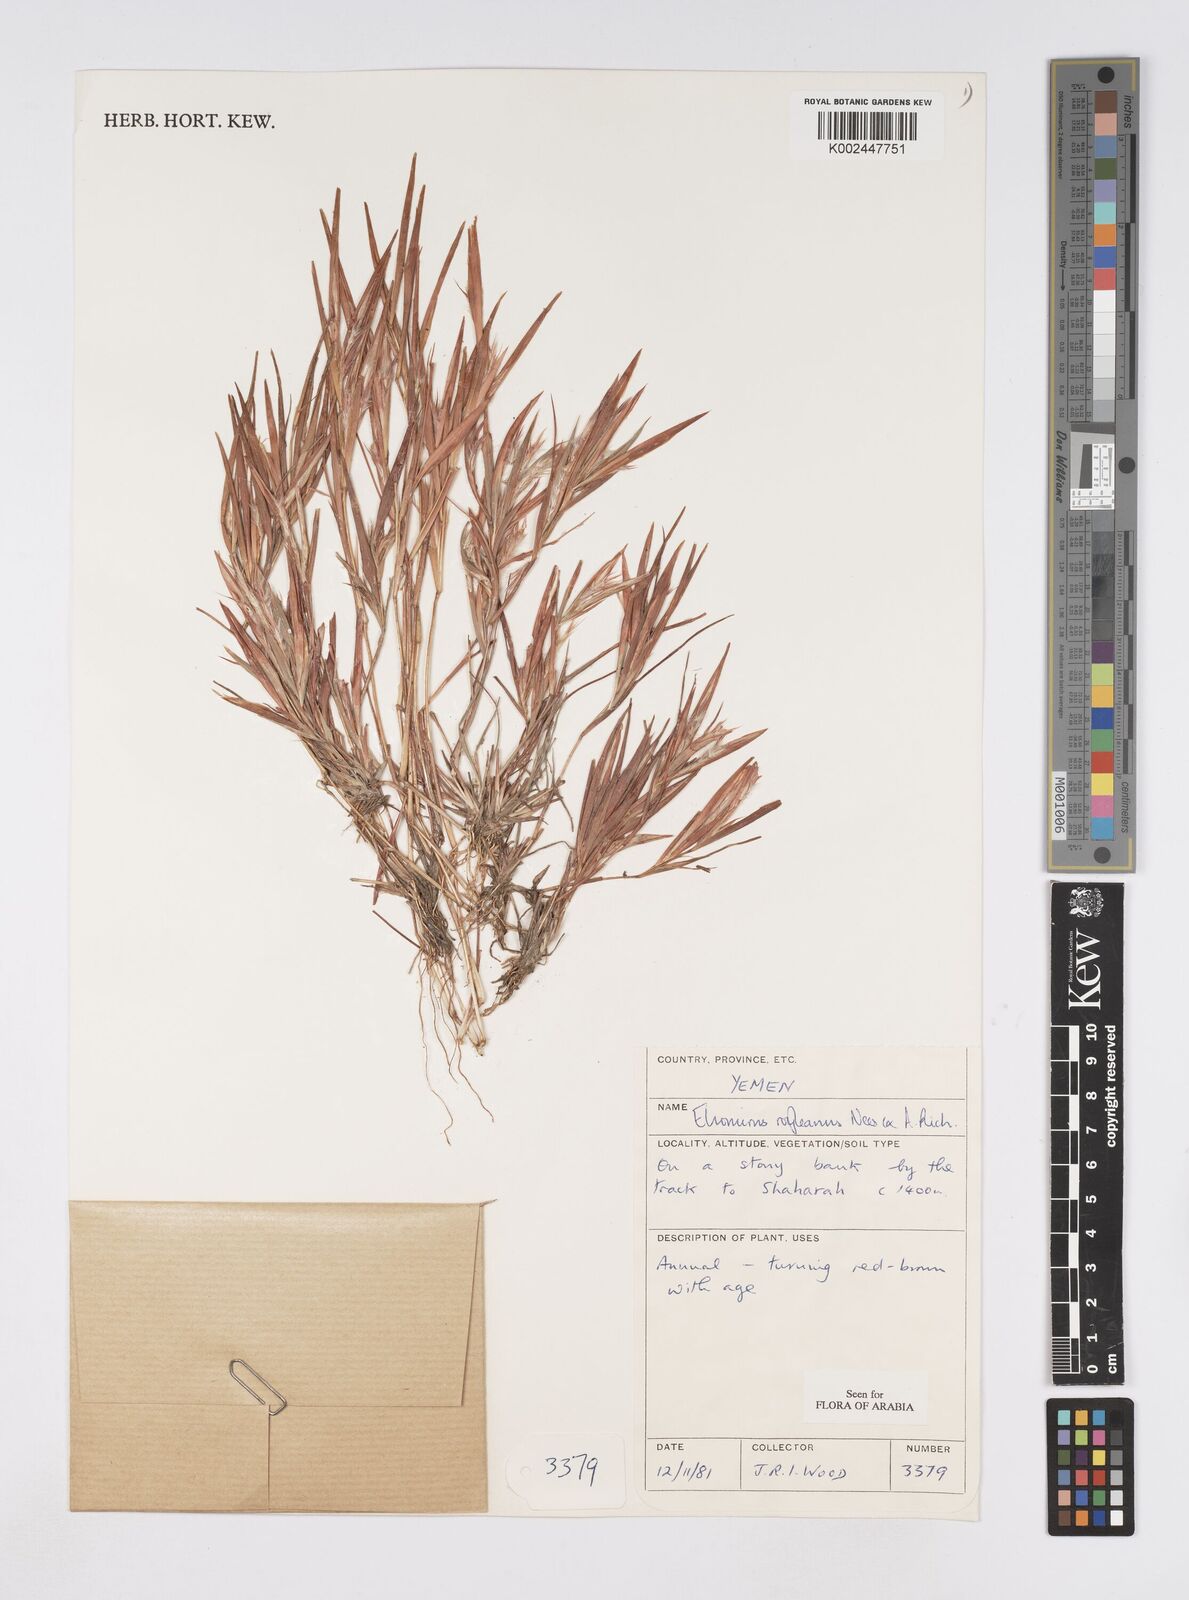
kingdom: Plantae
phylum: Tracheophyta
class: Liliopsida
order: Poales
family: Poaceae
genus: Elionurus
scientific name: Elionurus royleanus
